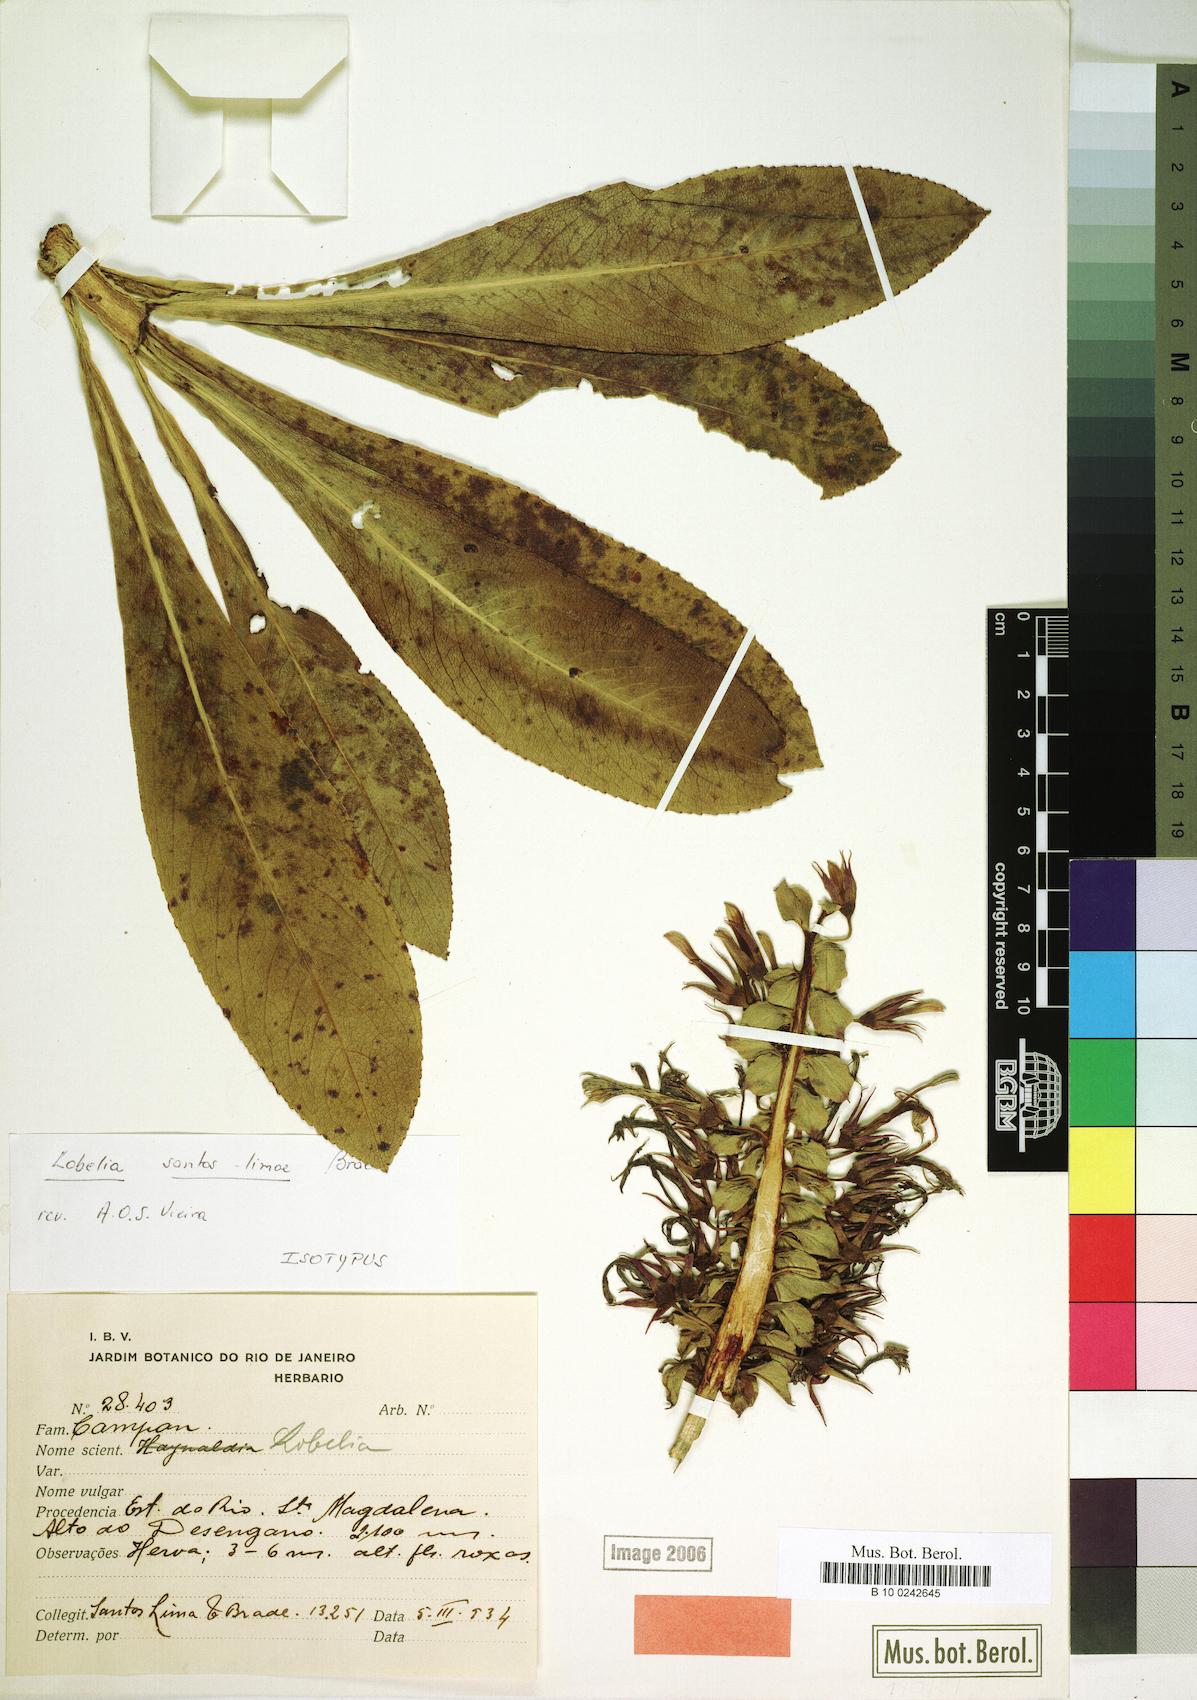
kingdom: Plantae
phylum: Tracheophyta
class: Magnoliopsida
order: Asterales
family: Campanulaceae
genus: Lobelia
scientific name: Lobelia santos-limae
